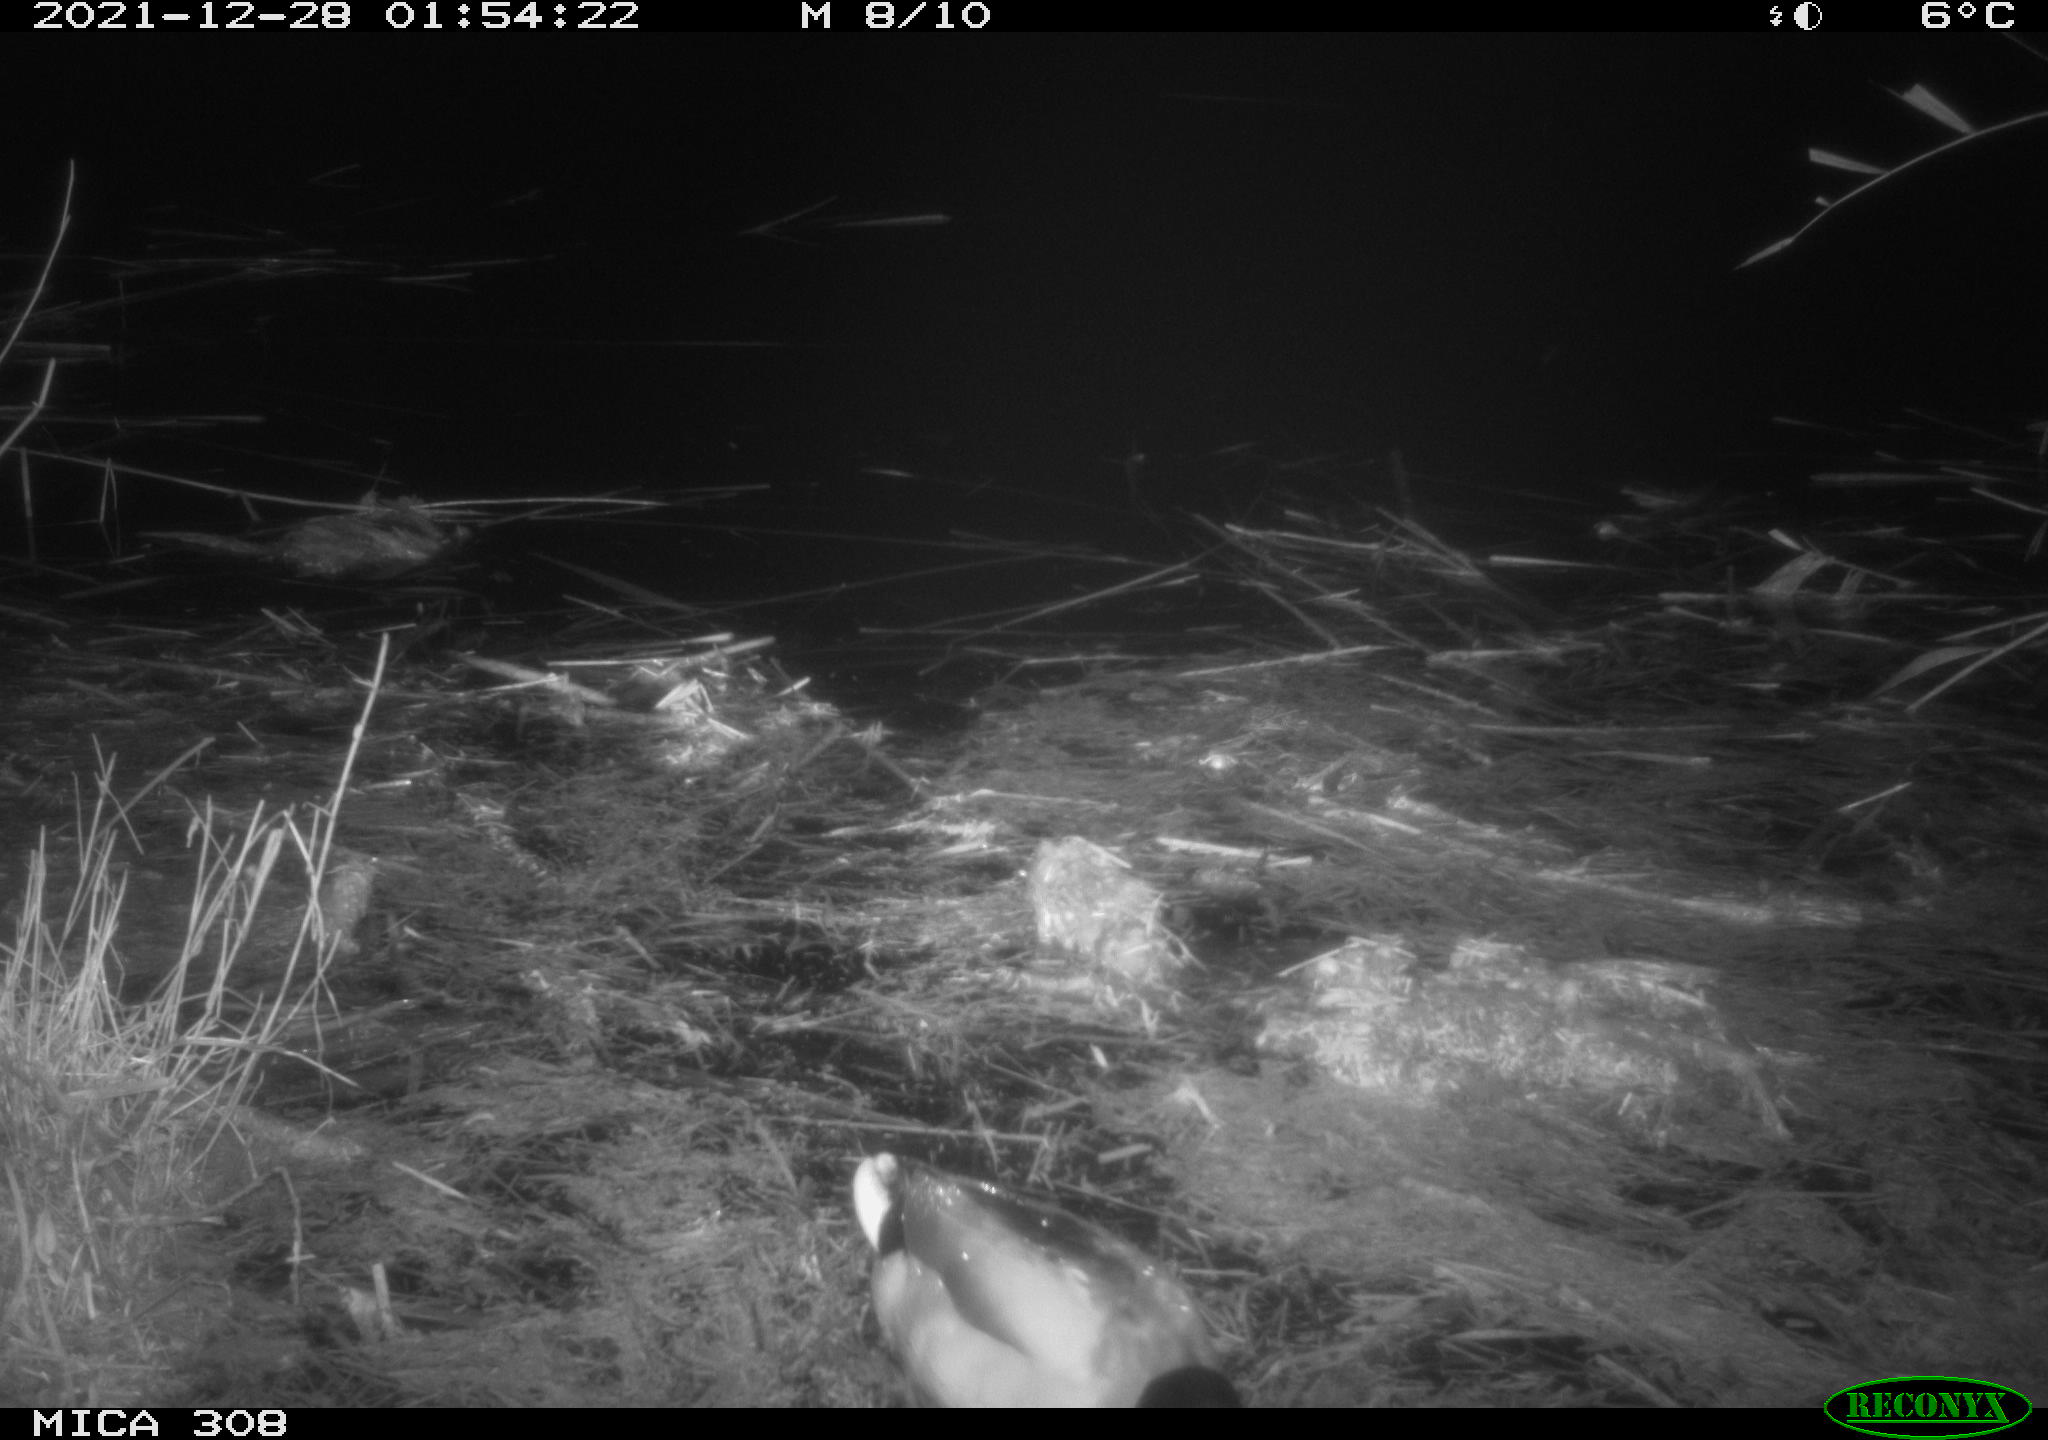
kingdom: Animalia
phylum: Chordata
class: Aves
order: Anseriformes
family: Anatidae
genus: Anas
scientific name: Anas platyrhynchos
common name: Mallard
